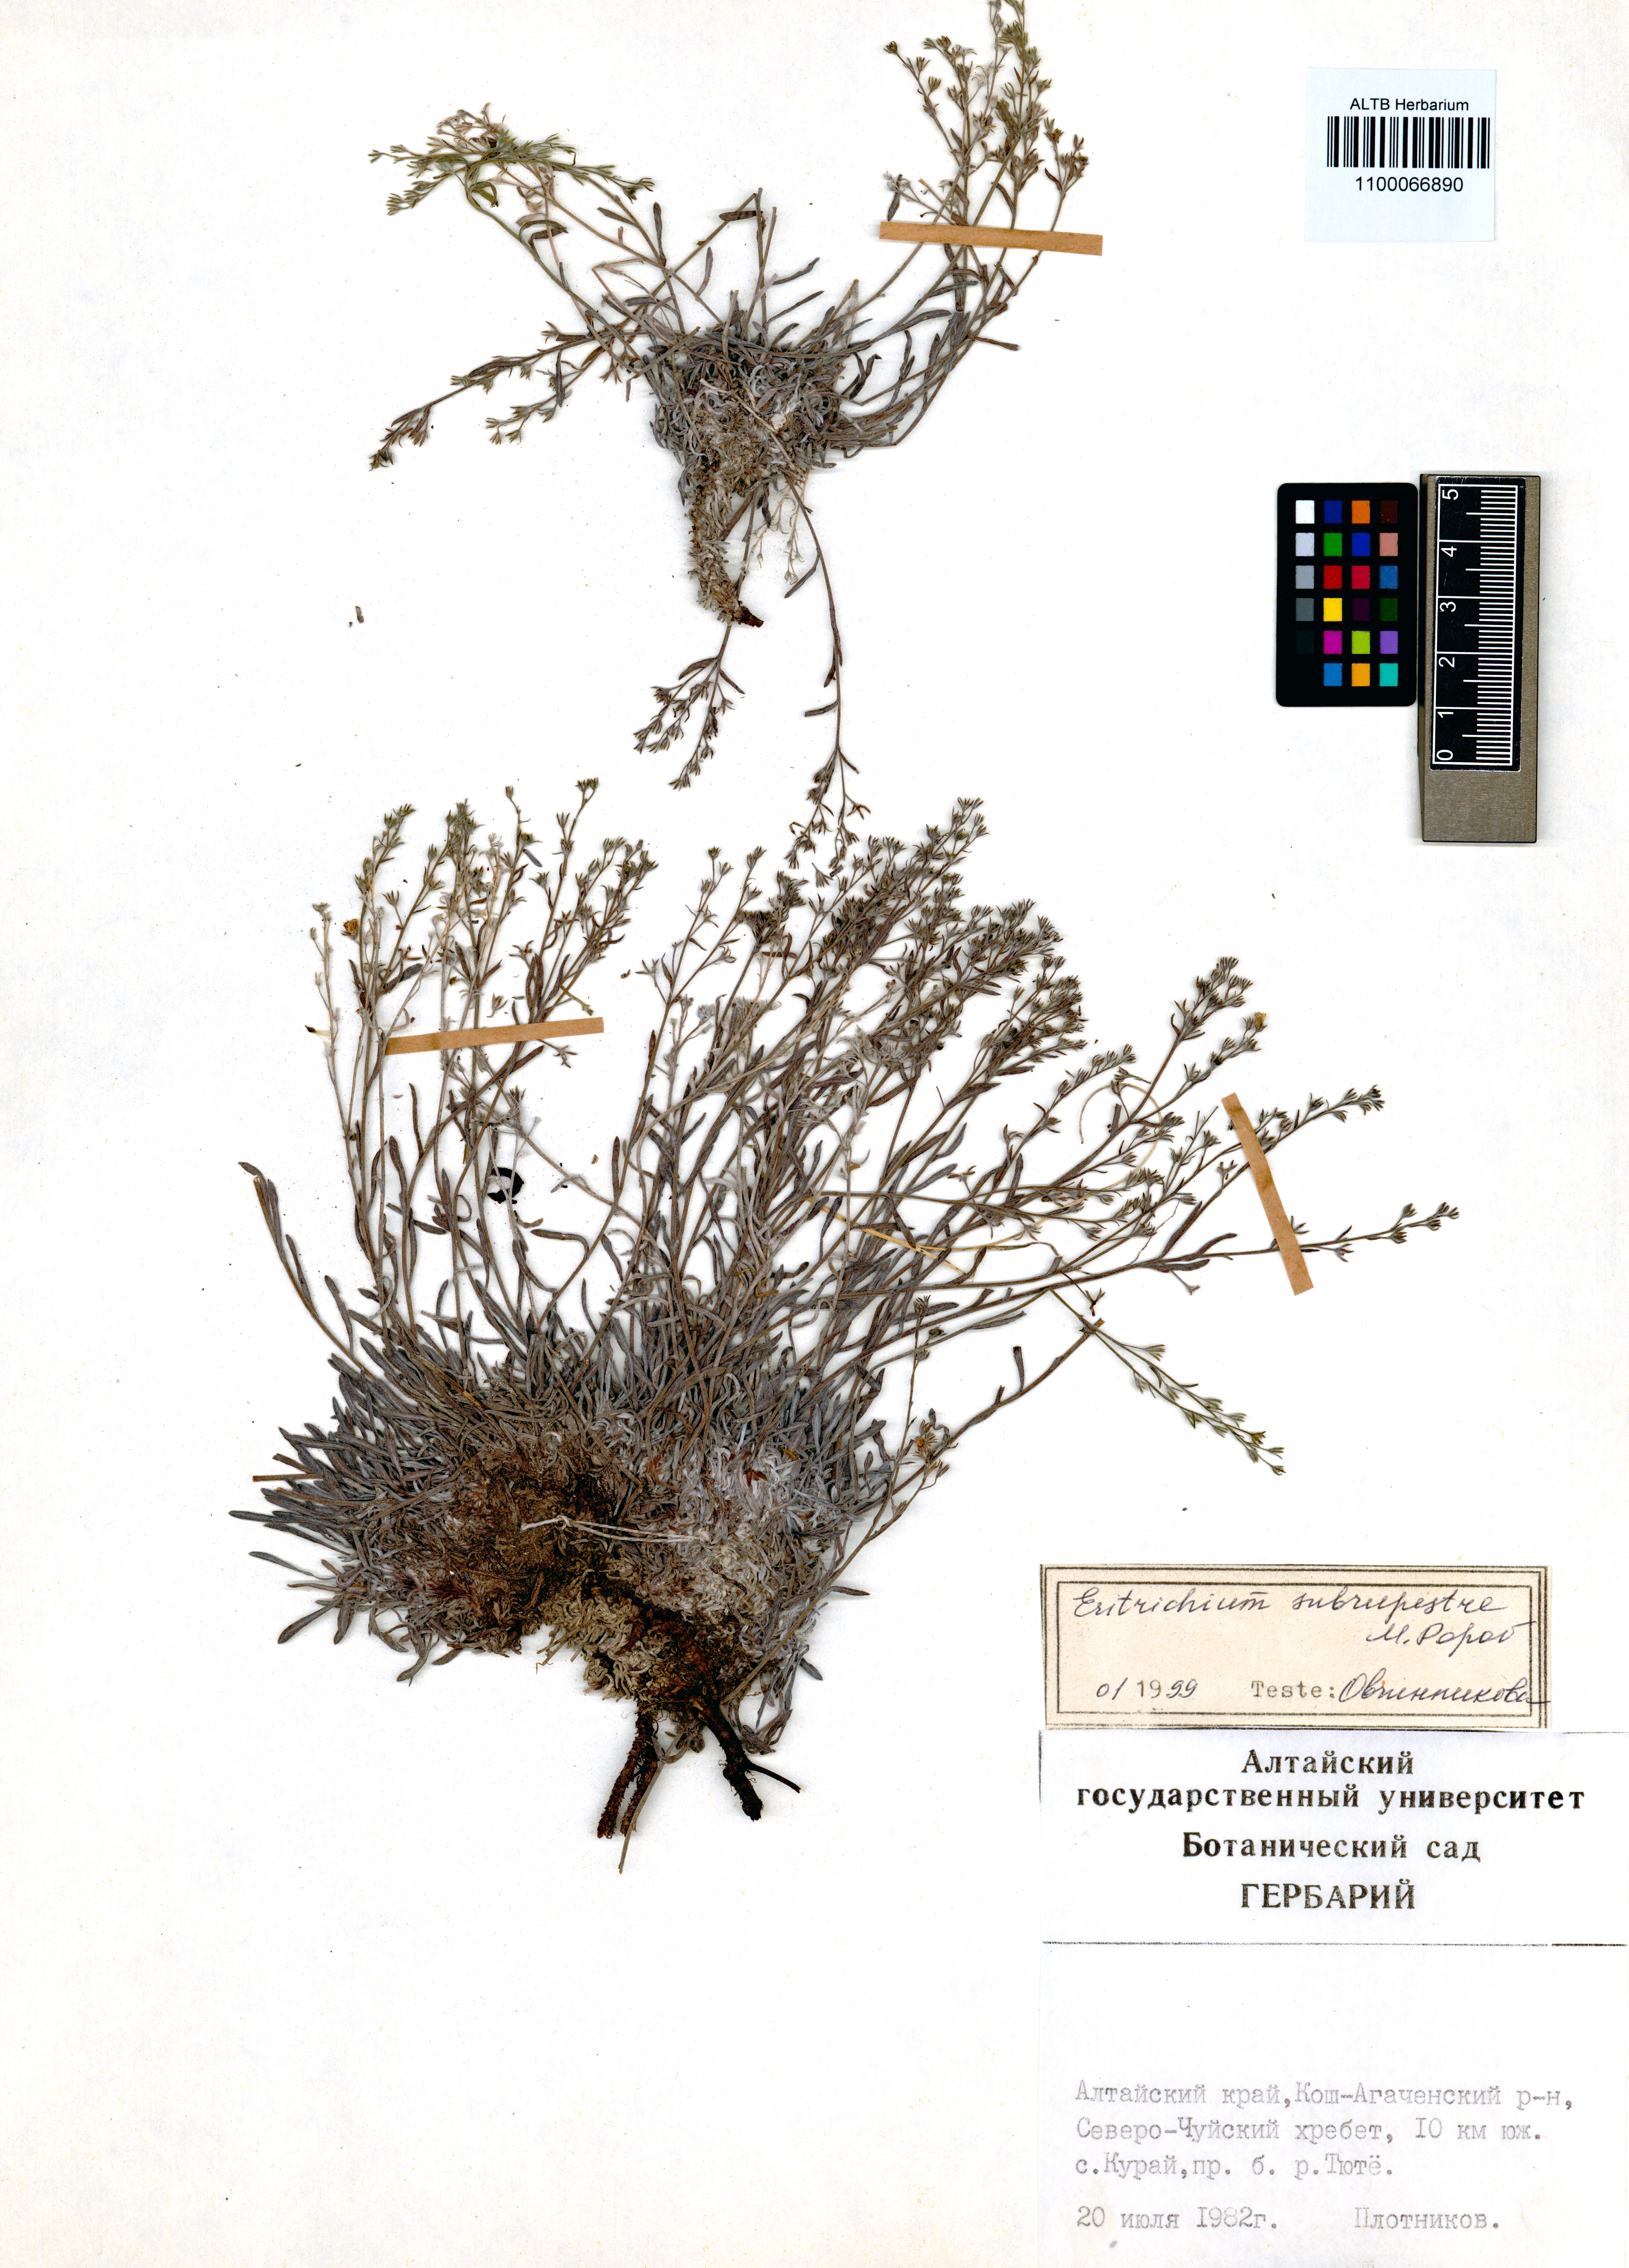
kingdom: Plantae
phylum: Tracheophyta
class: Magnoliopsida
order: Boraginales
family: Boraginaceae
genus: Eritrichium
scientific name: Eritrichium pauciflorum
